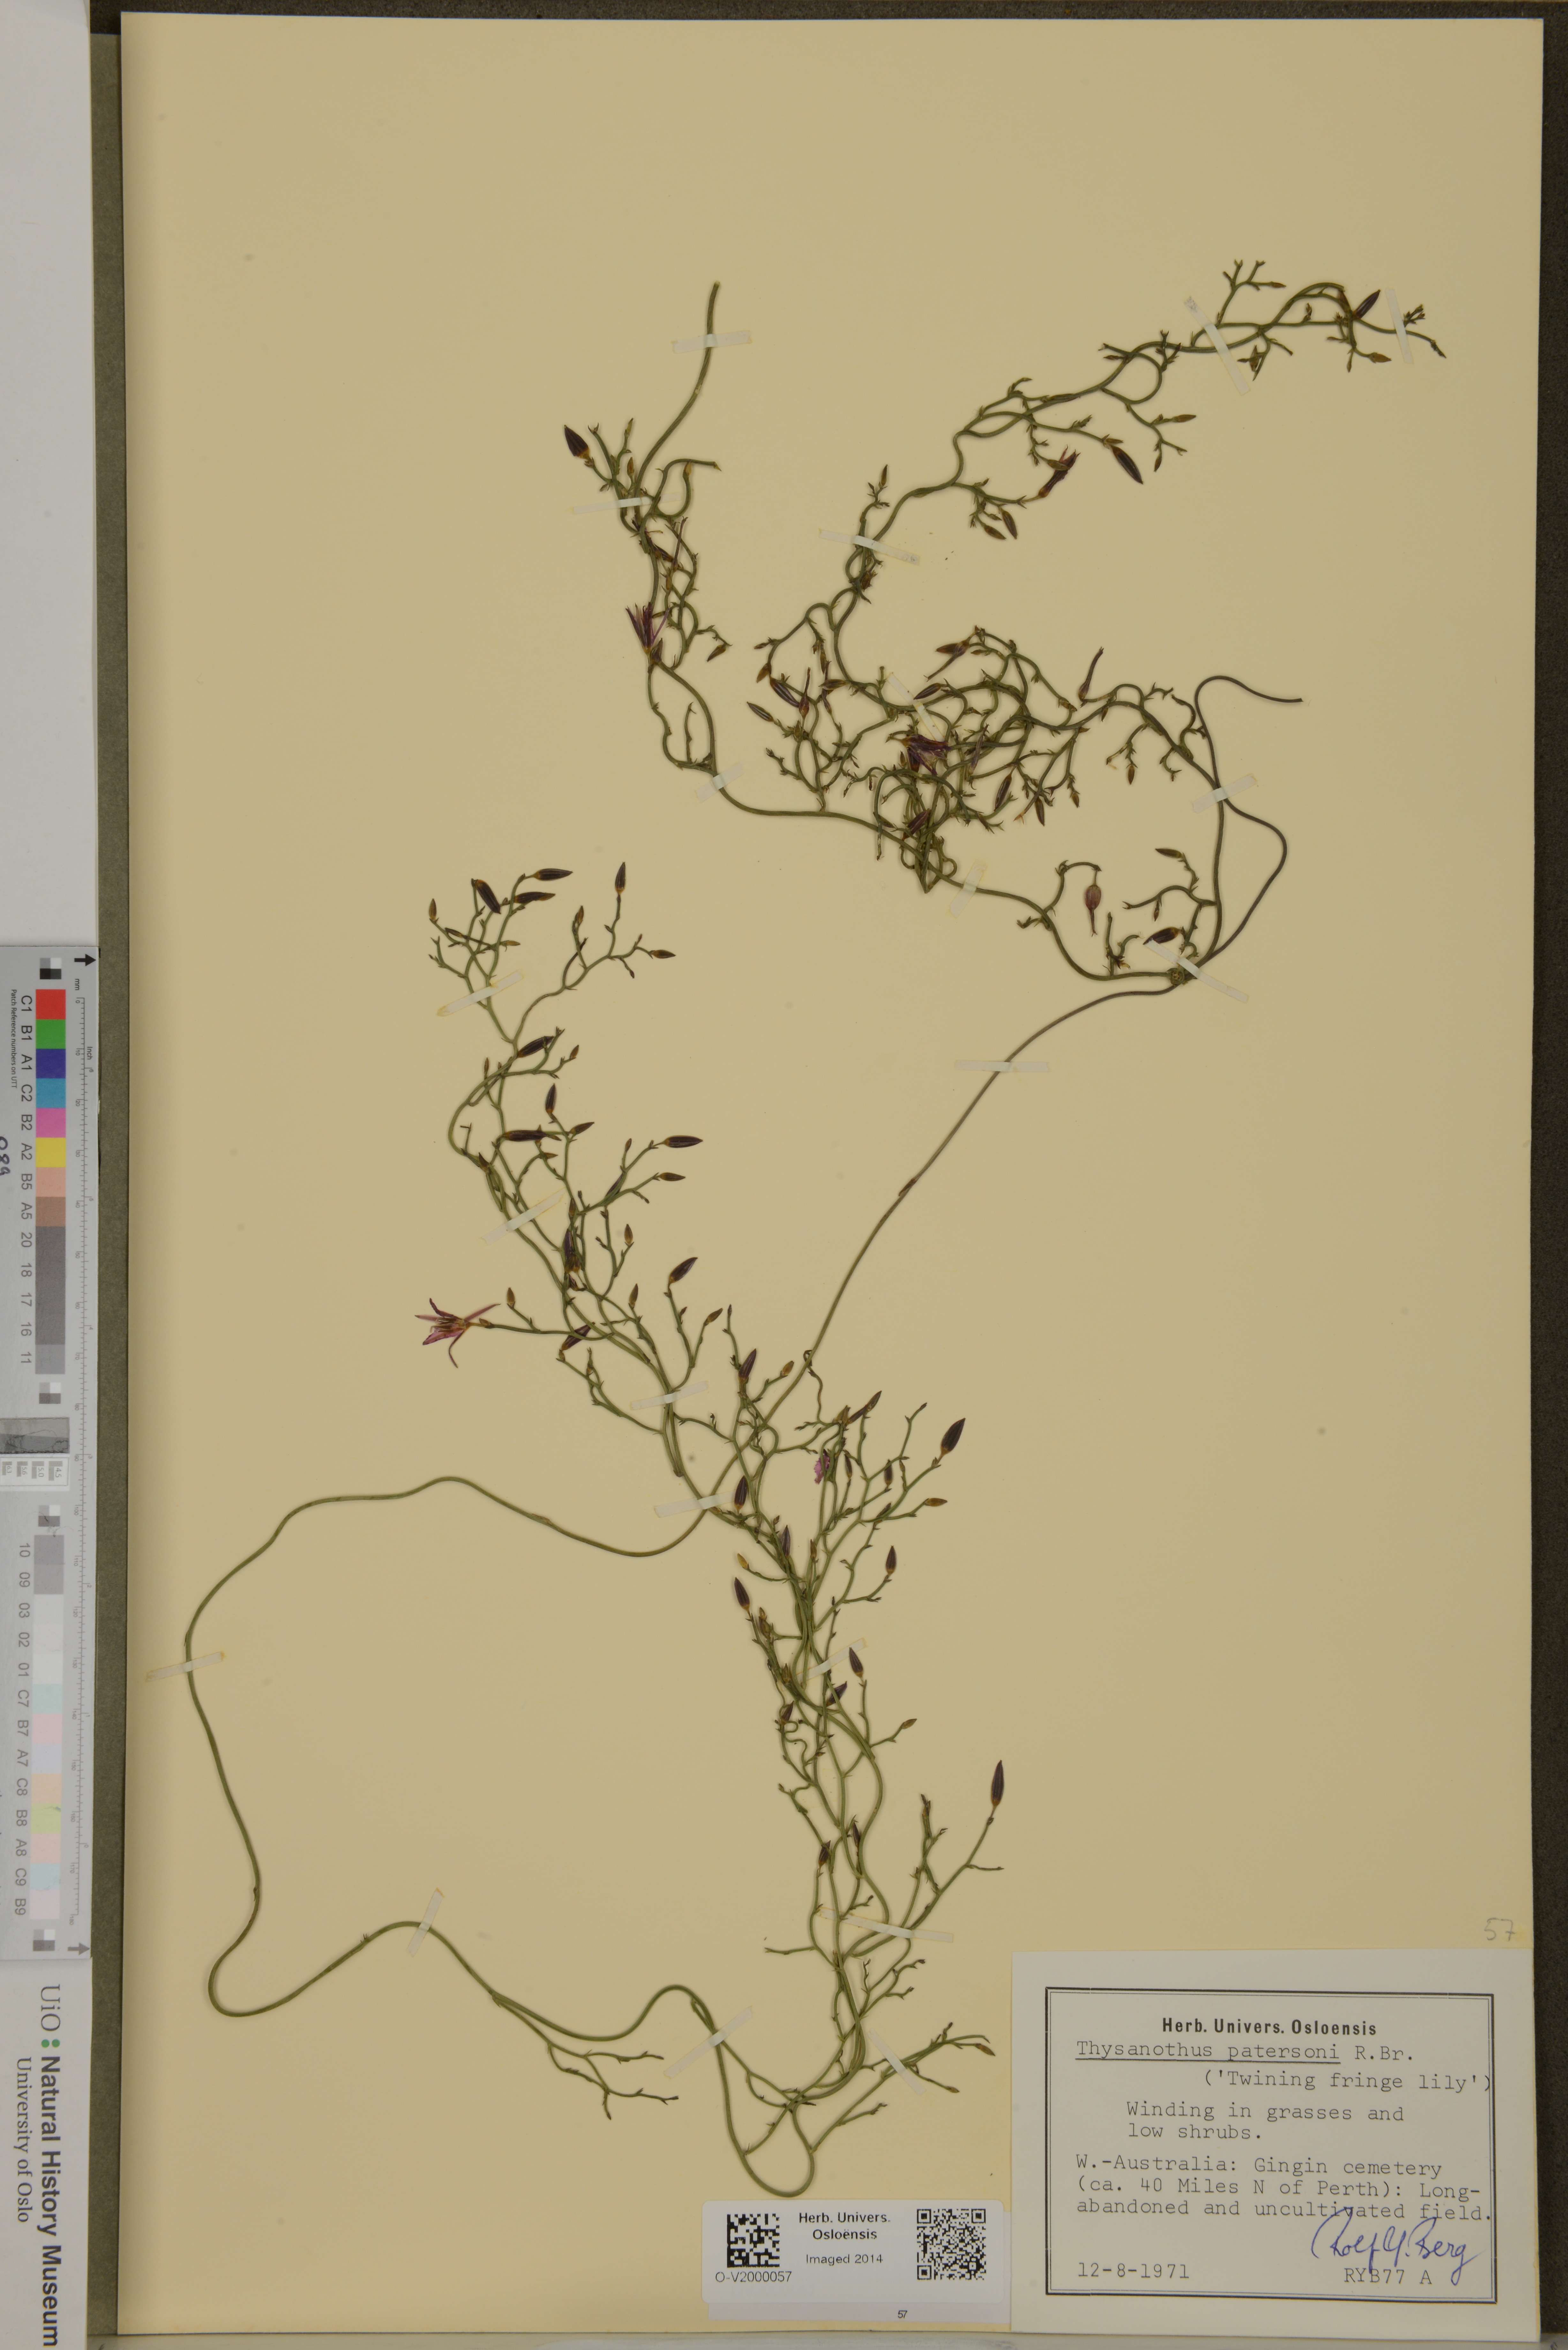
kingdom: Plantae
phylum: Tracheophyta
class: Liliopsida
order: Asparagales
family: Asparagaceae
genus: Thysanotus
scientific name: Thysanotus patersonii
